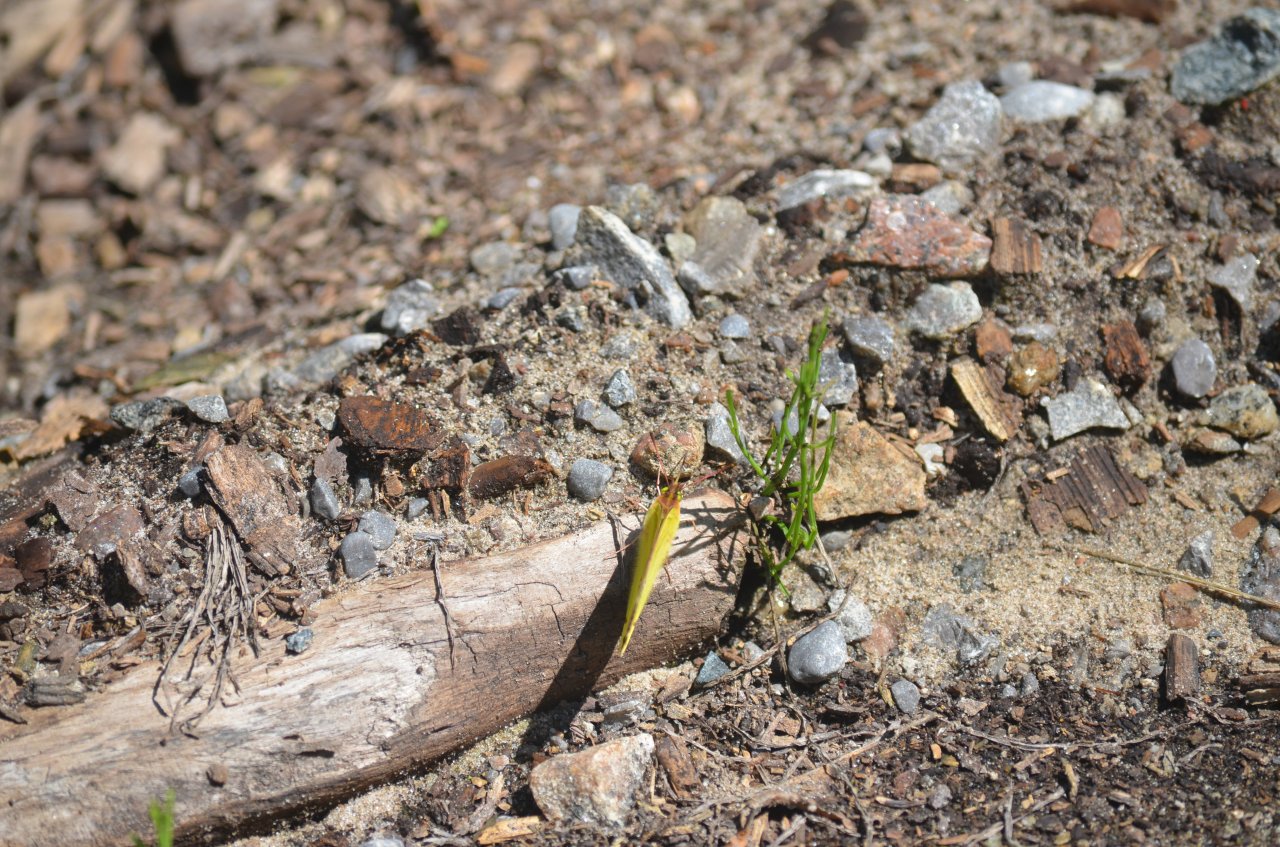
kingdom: Animalia
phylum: Arthropoda
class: Insecta
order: Lepidoptera
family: Pieridae
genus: Colias
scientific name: Colias eurytheme
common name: Orange Sulphur
